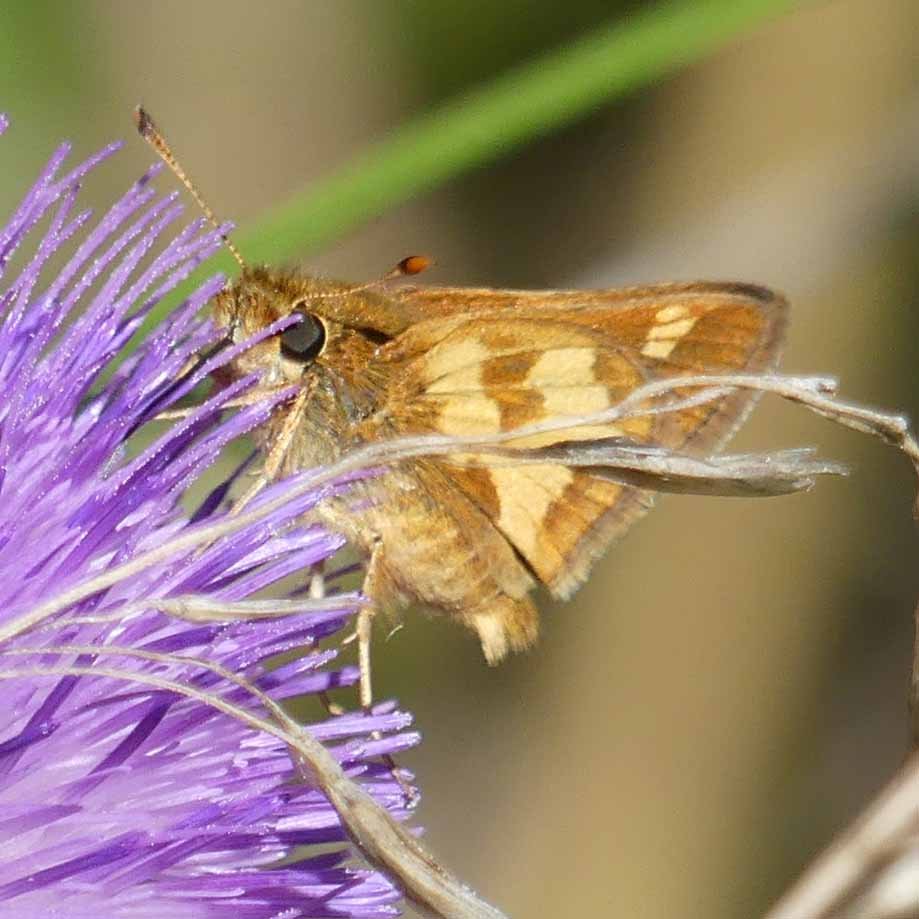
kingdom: Animalia
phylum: Arthropoda
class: Insecta
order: Lepidoptera
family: Hesperiidae
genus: Polites
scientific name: Polites coras
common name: Peck's Skipper
